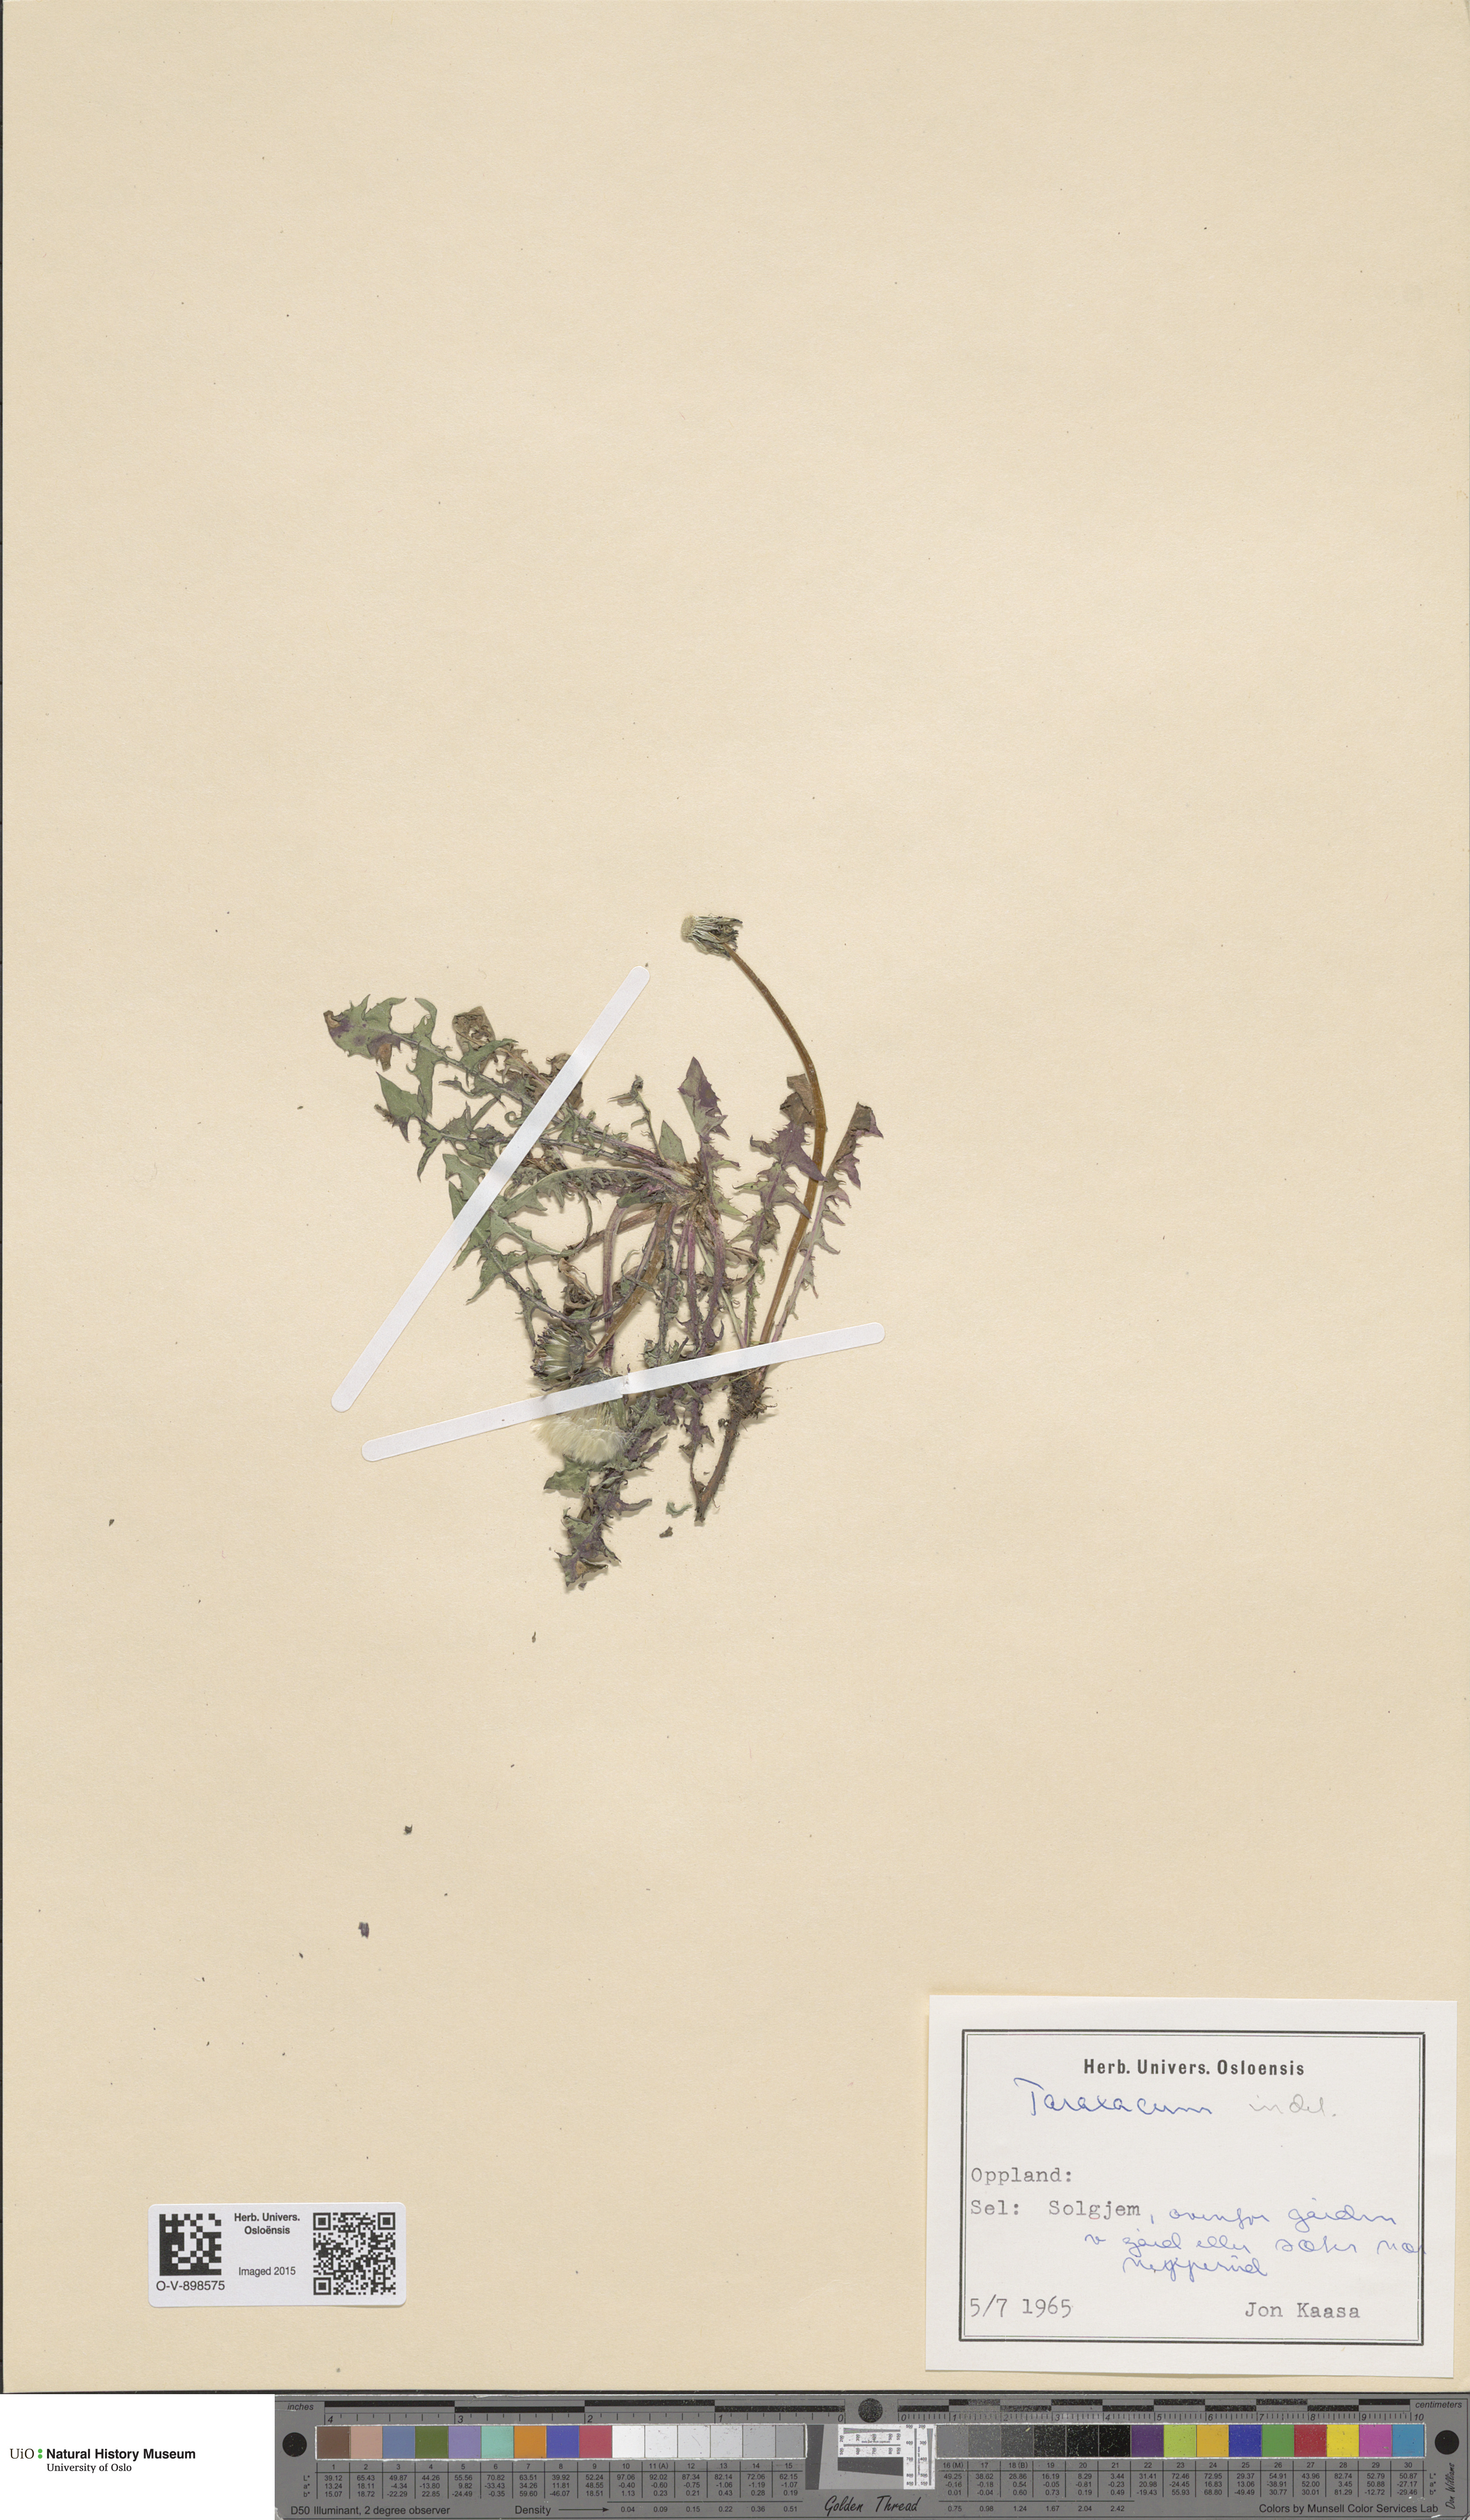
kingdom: Plantae
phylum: Tracheophyta
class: Magnoliopsida
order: Asterales
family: Asteraceae
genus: Taraxacum
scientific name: Taraxacum
